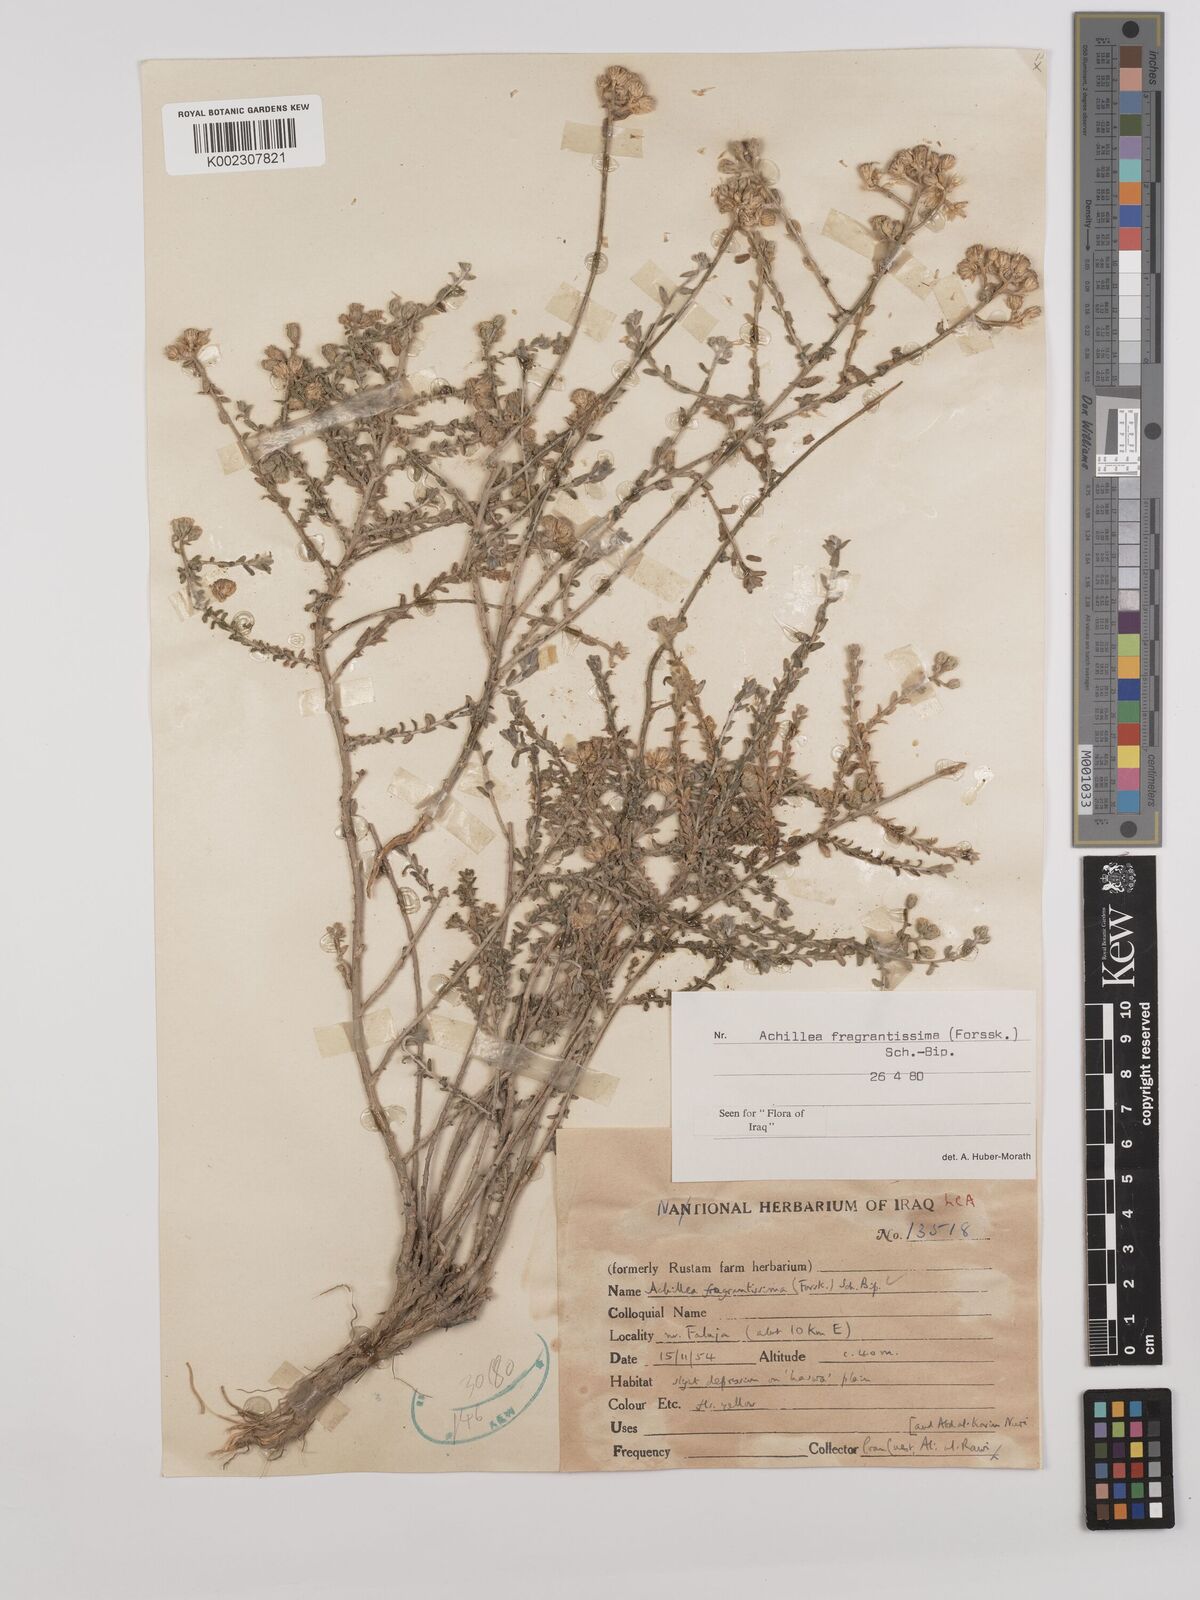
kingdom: Plantae
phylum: Tracheophyta
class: Magnoliopsida
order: Asterales
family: Asteraceae
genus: Achillea
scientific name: Achillea fragrantissima
